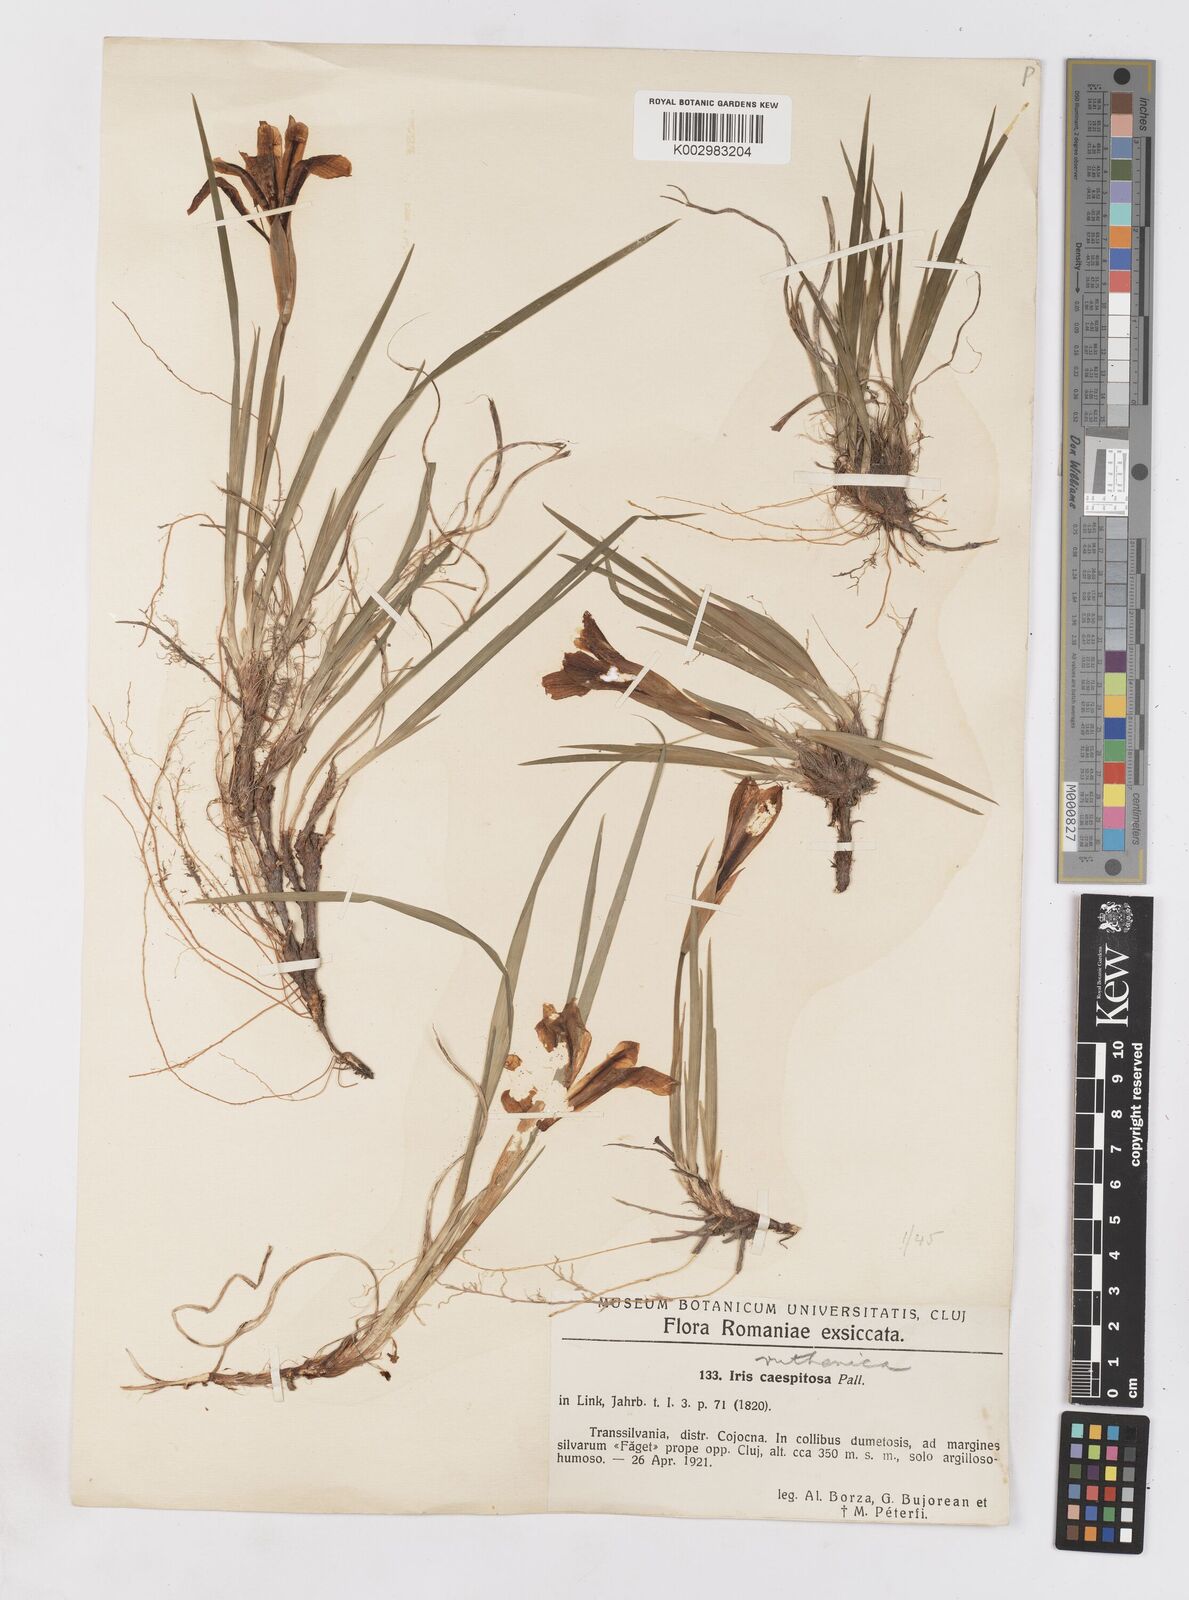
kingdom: Plantae
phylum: Tracheophyta
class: Liliopsida
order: Asparagales
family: Iridaceae
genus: Iris
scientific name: Iris ruthenica
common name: Purple-bract iris
